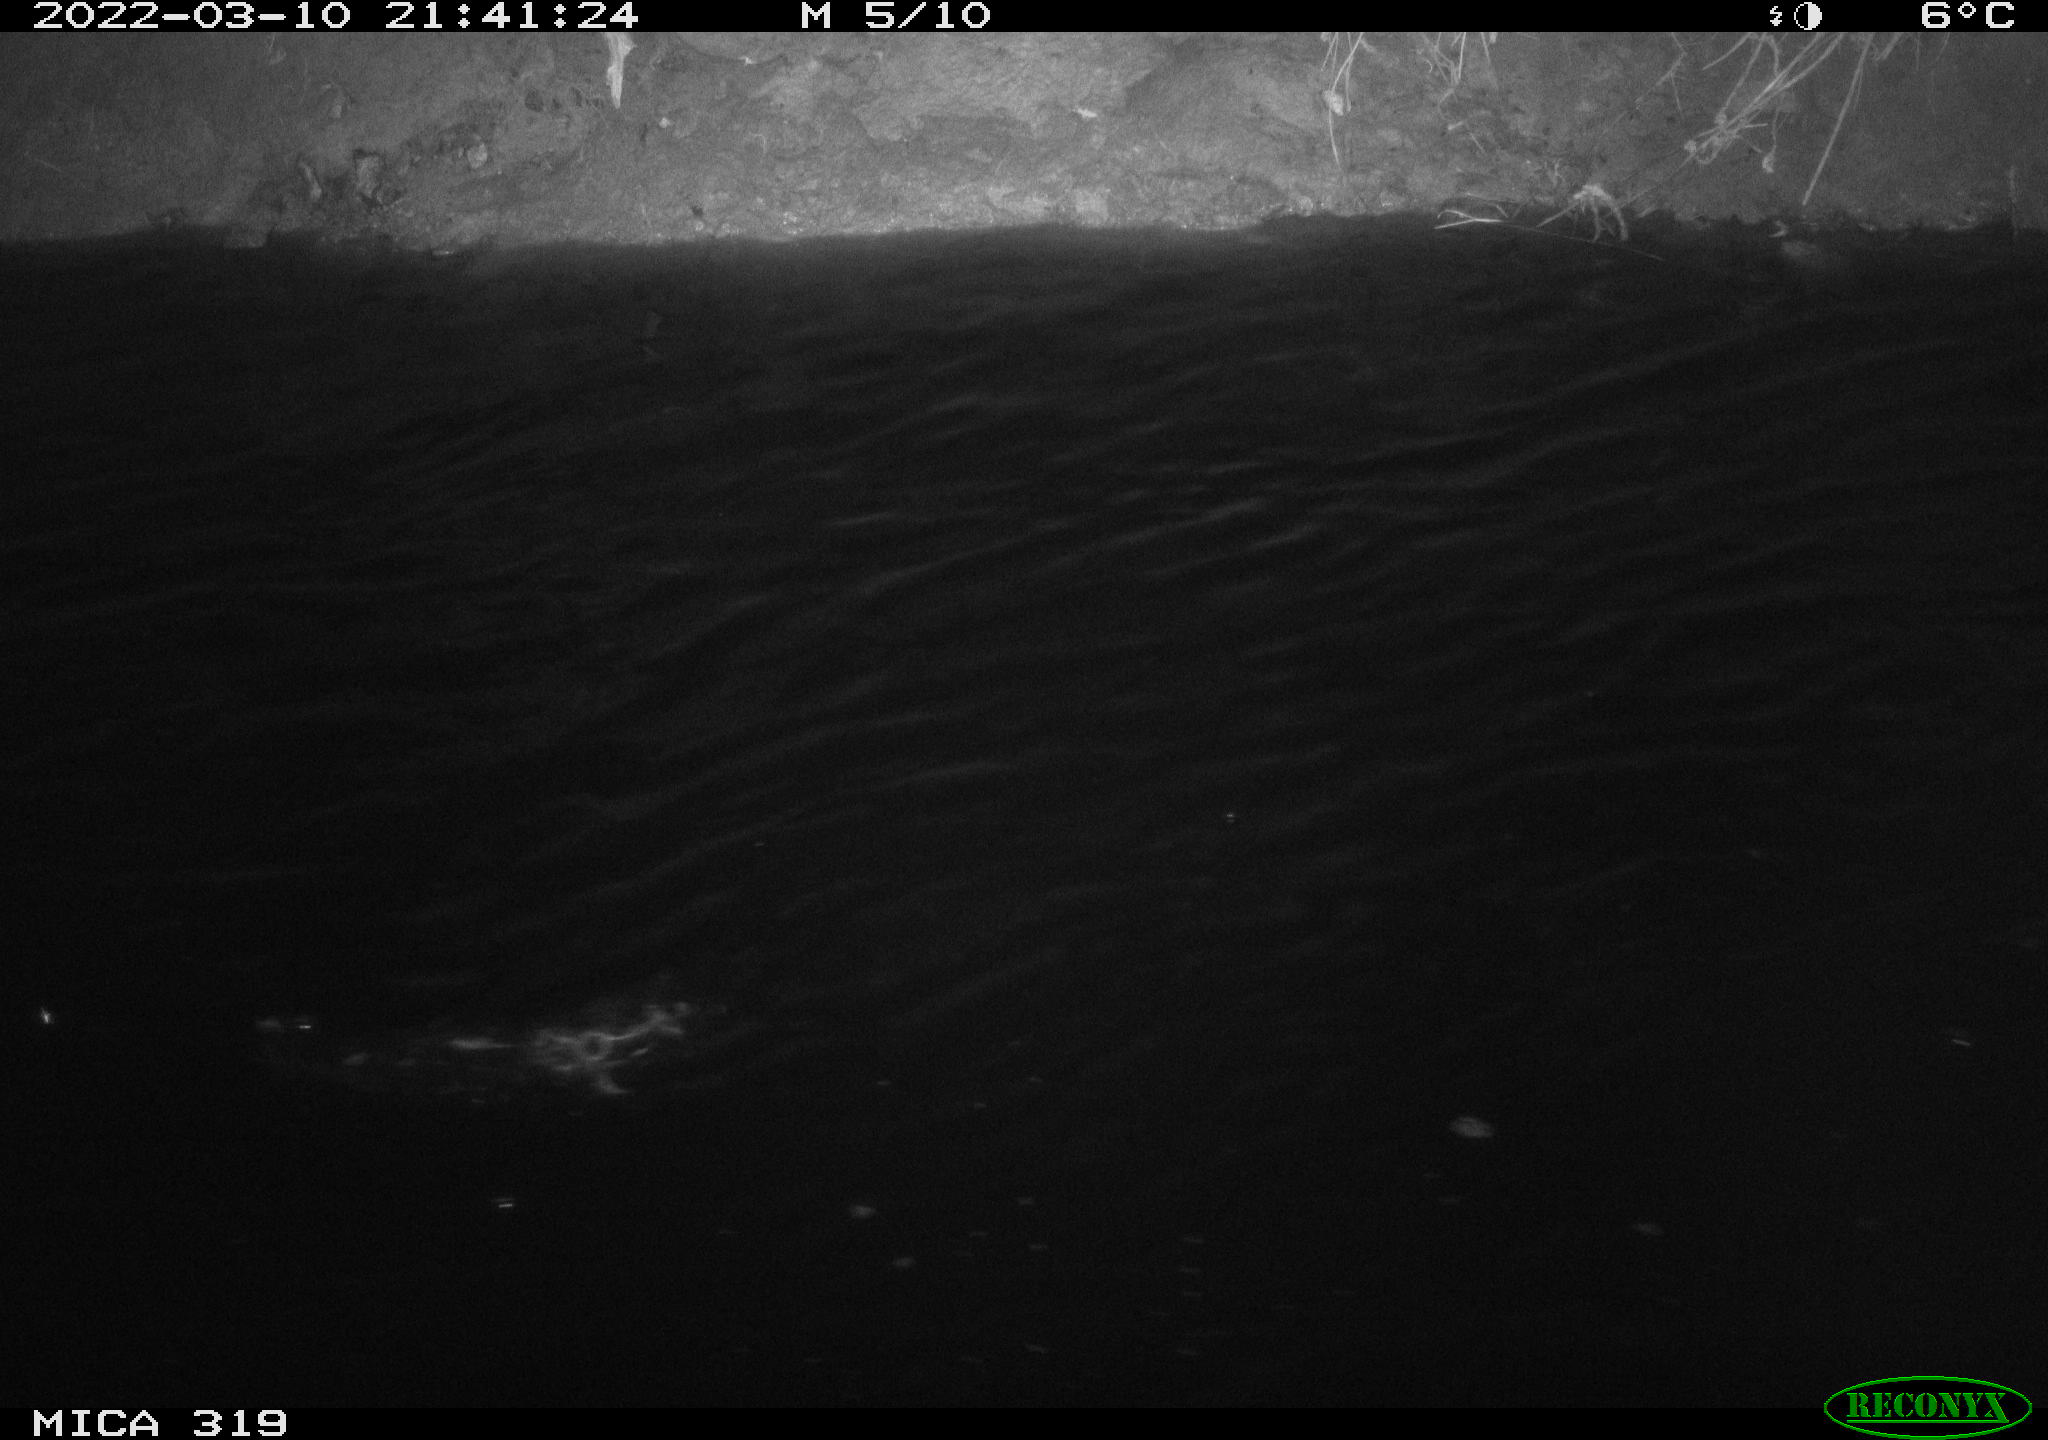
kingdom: Animalia
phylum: Chordata
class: Aves
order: Anseriformes
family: Anatidae
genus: Anas
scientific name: Anas platyrhynchos
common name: Mallard
